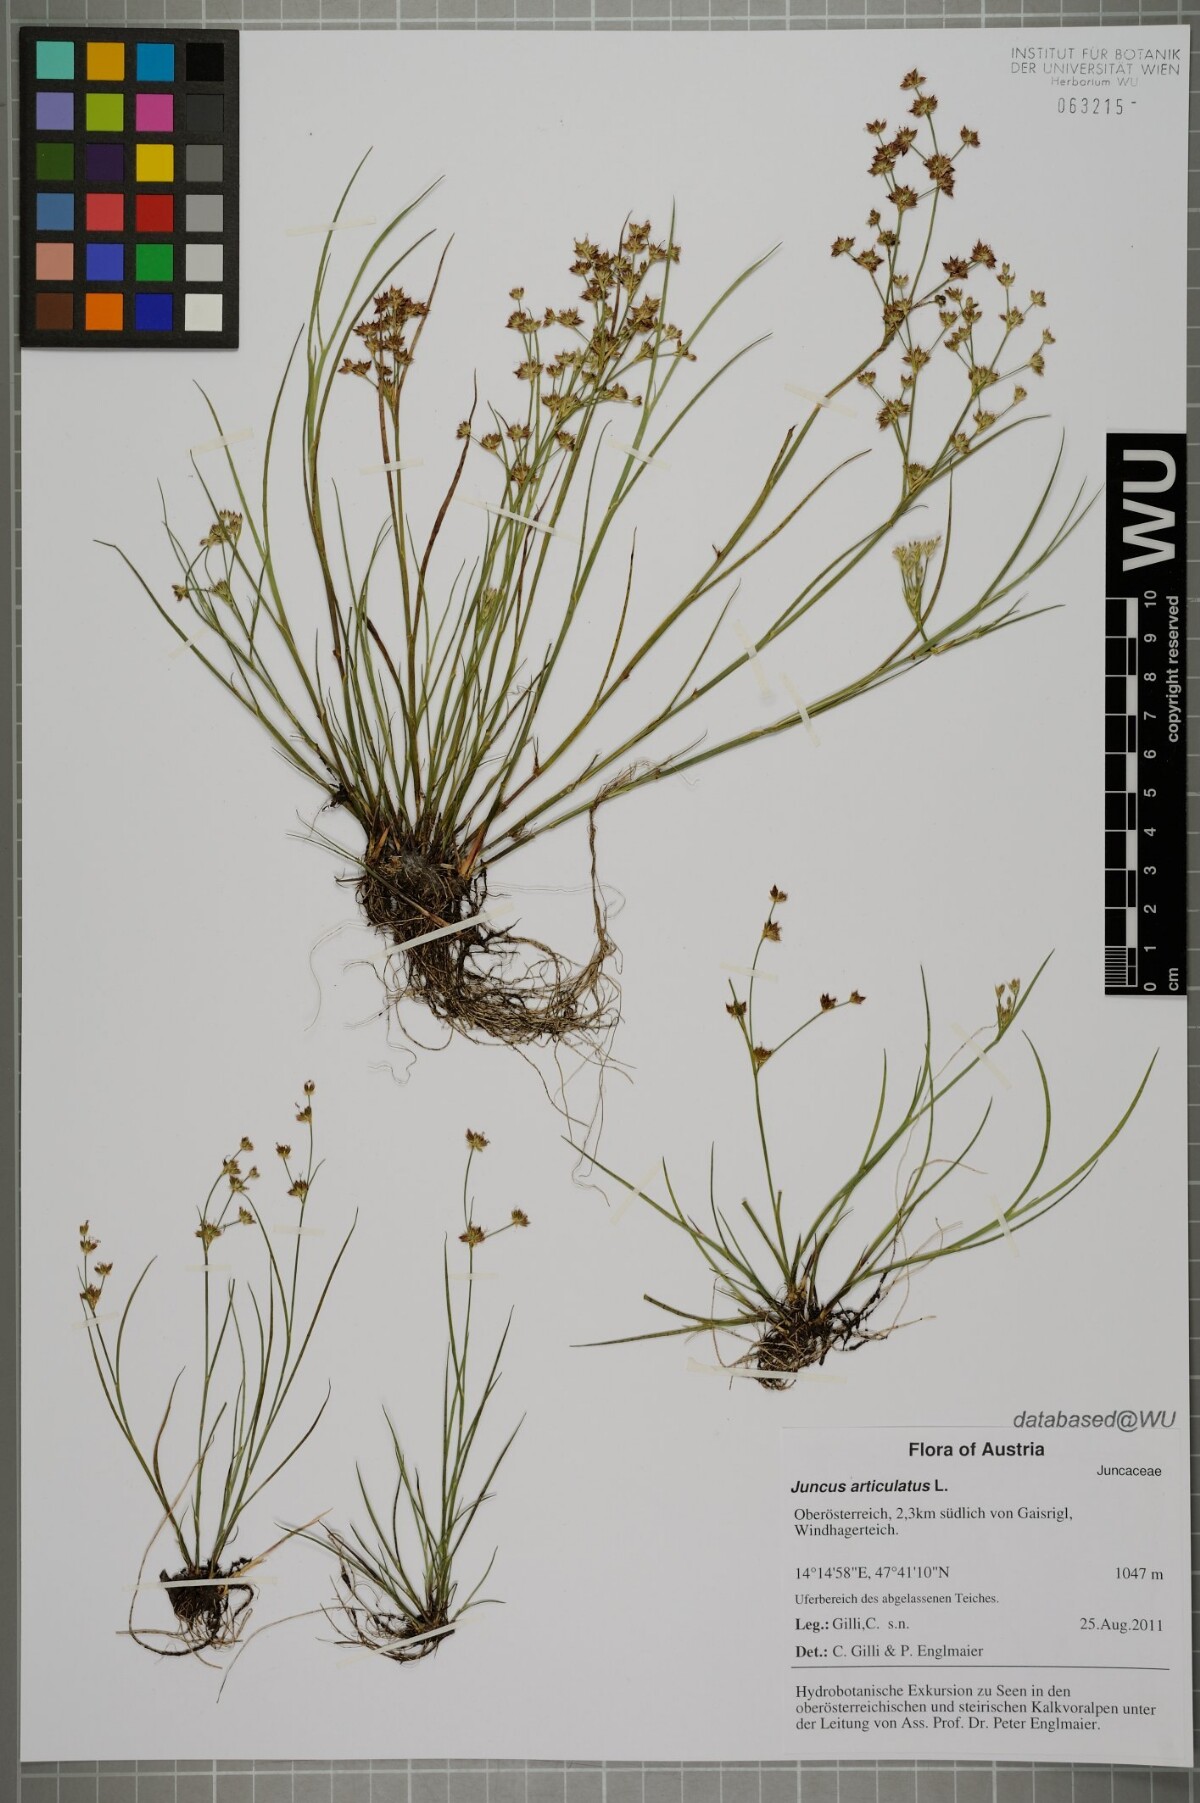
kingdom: Plantae
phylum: Tracheophyta
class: Liliopsida
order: Poales
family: Juncaceae
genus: Juncus
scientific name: Juncus articulatus
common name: Jointed rush
